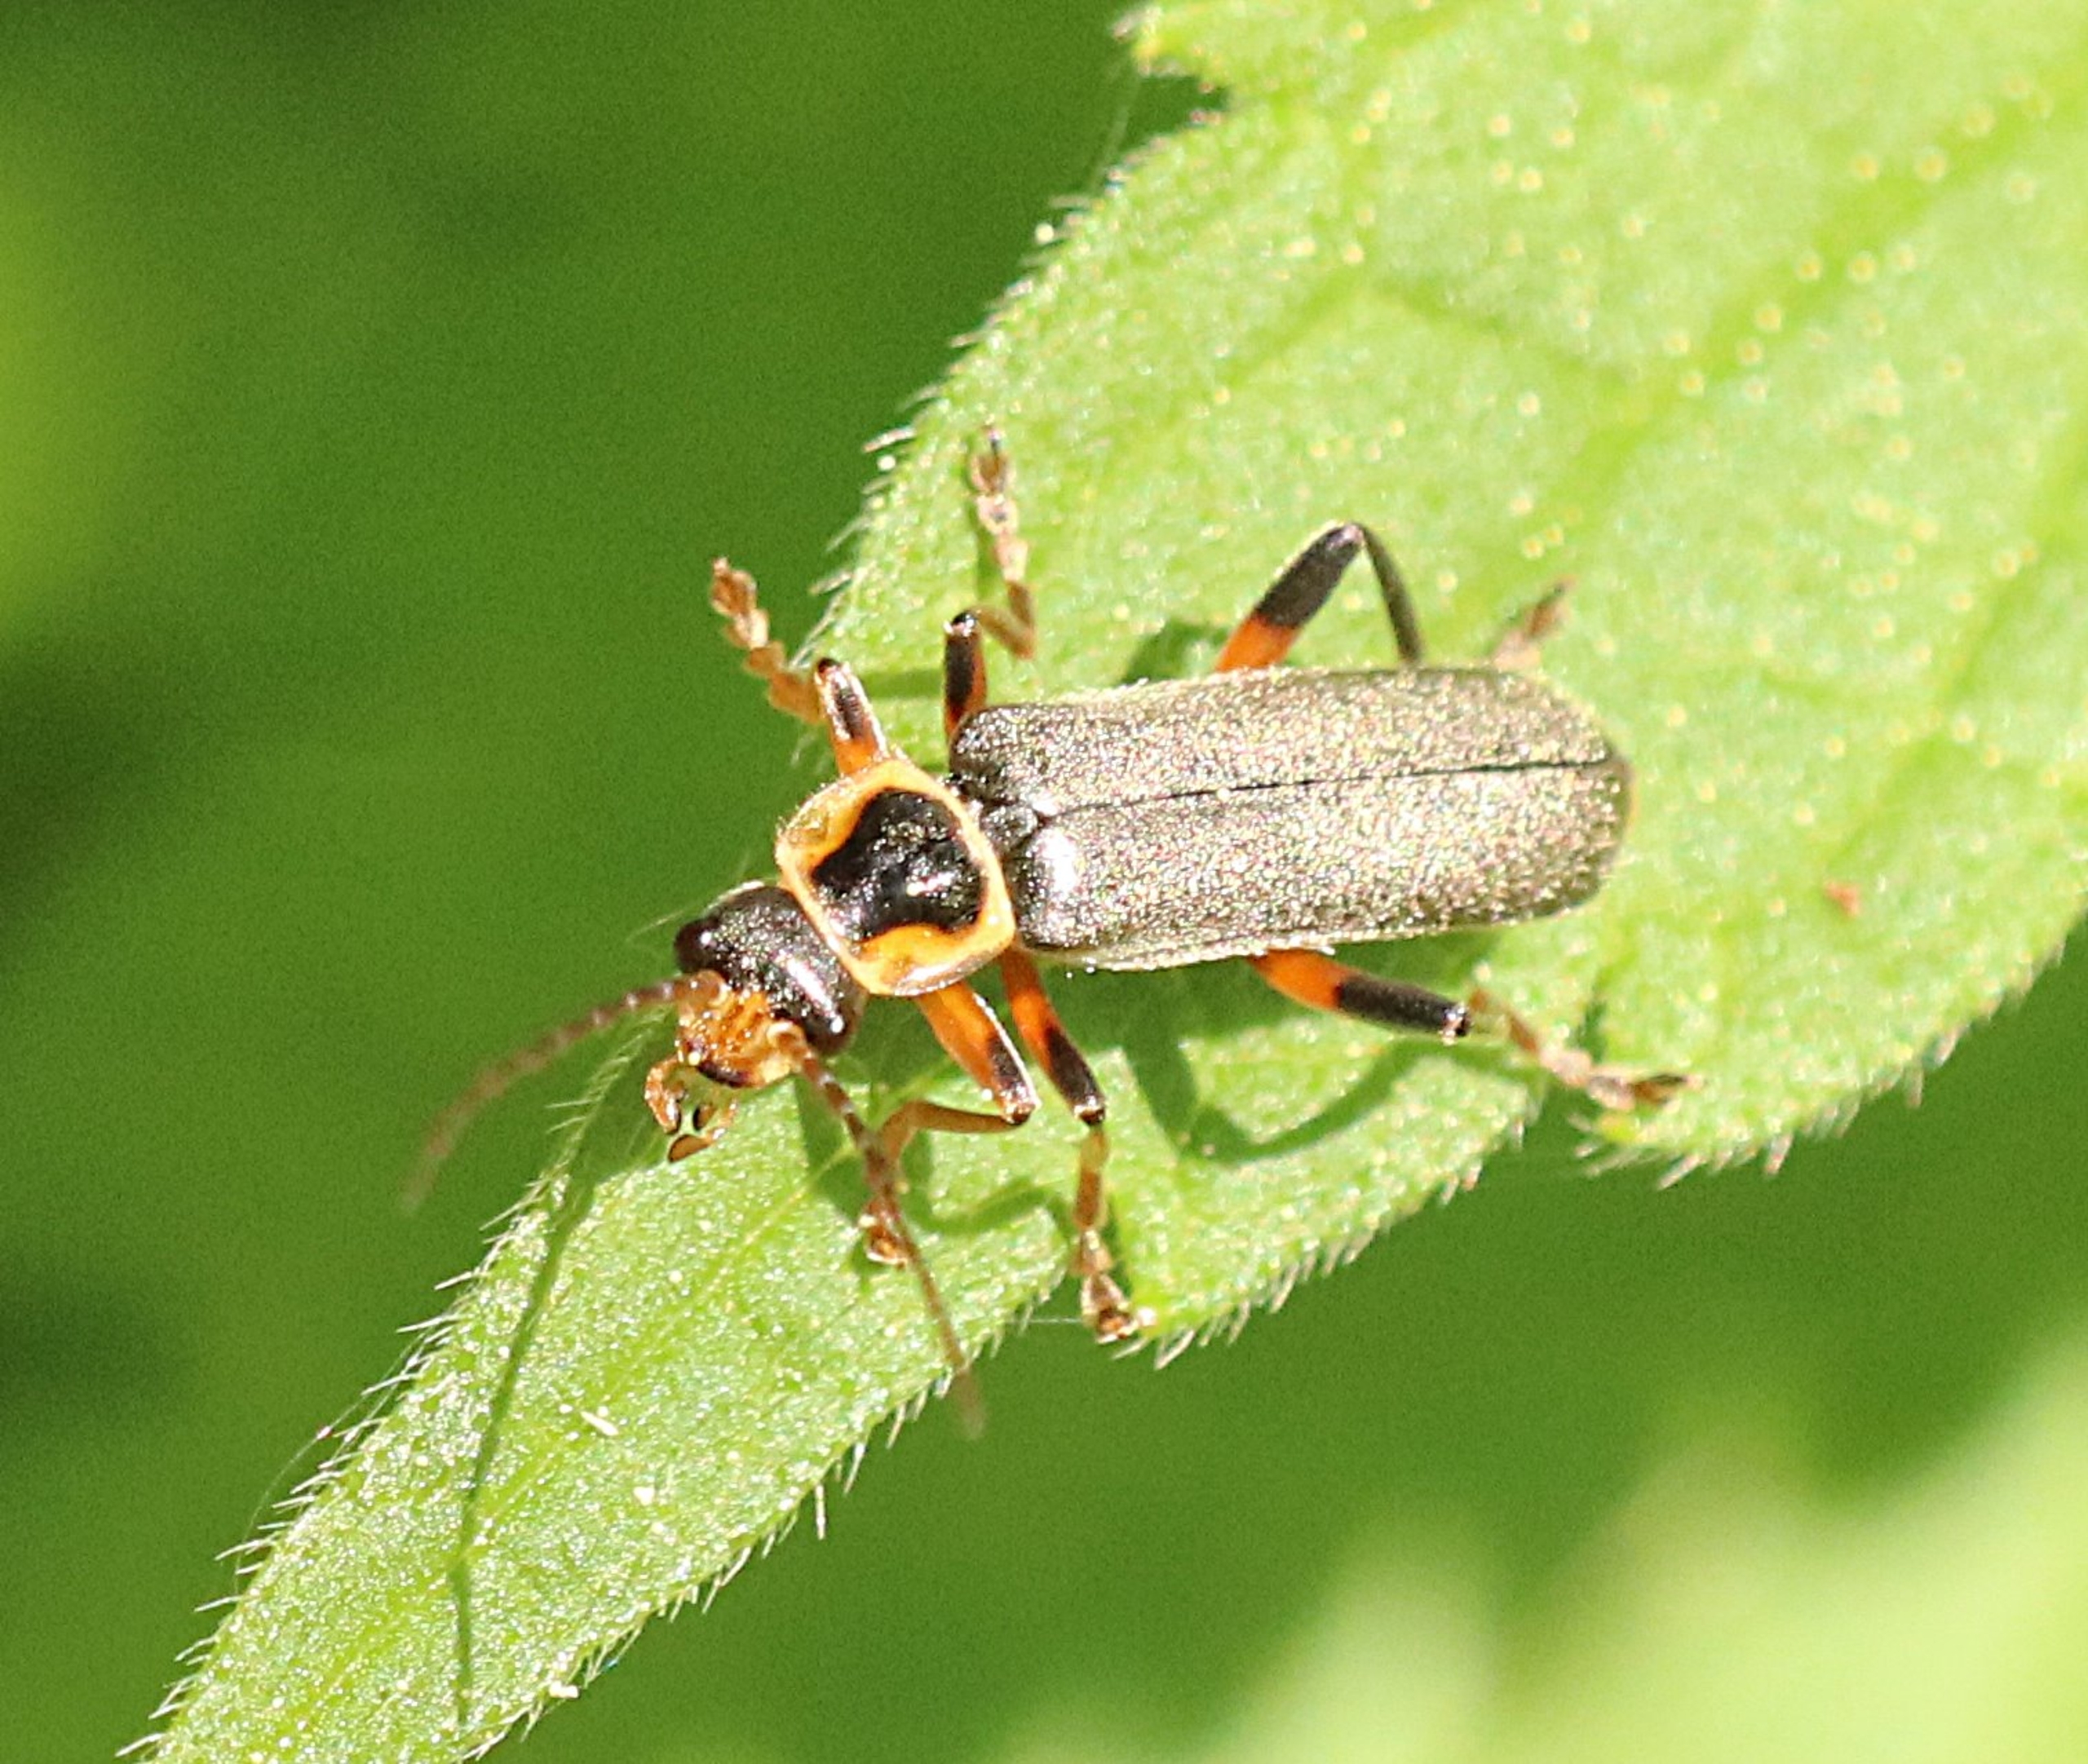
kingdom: Animalia
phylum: Arthropoda
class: Insecta
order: Coleoptera
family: Cantharidae
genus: Cantharis
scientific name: Cantharis nigricans
